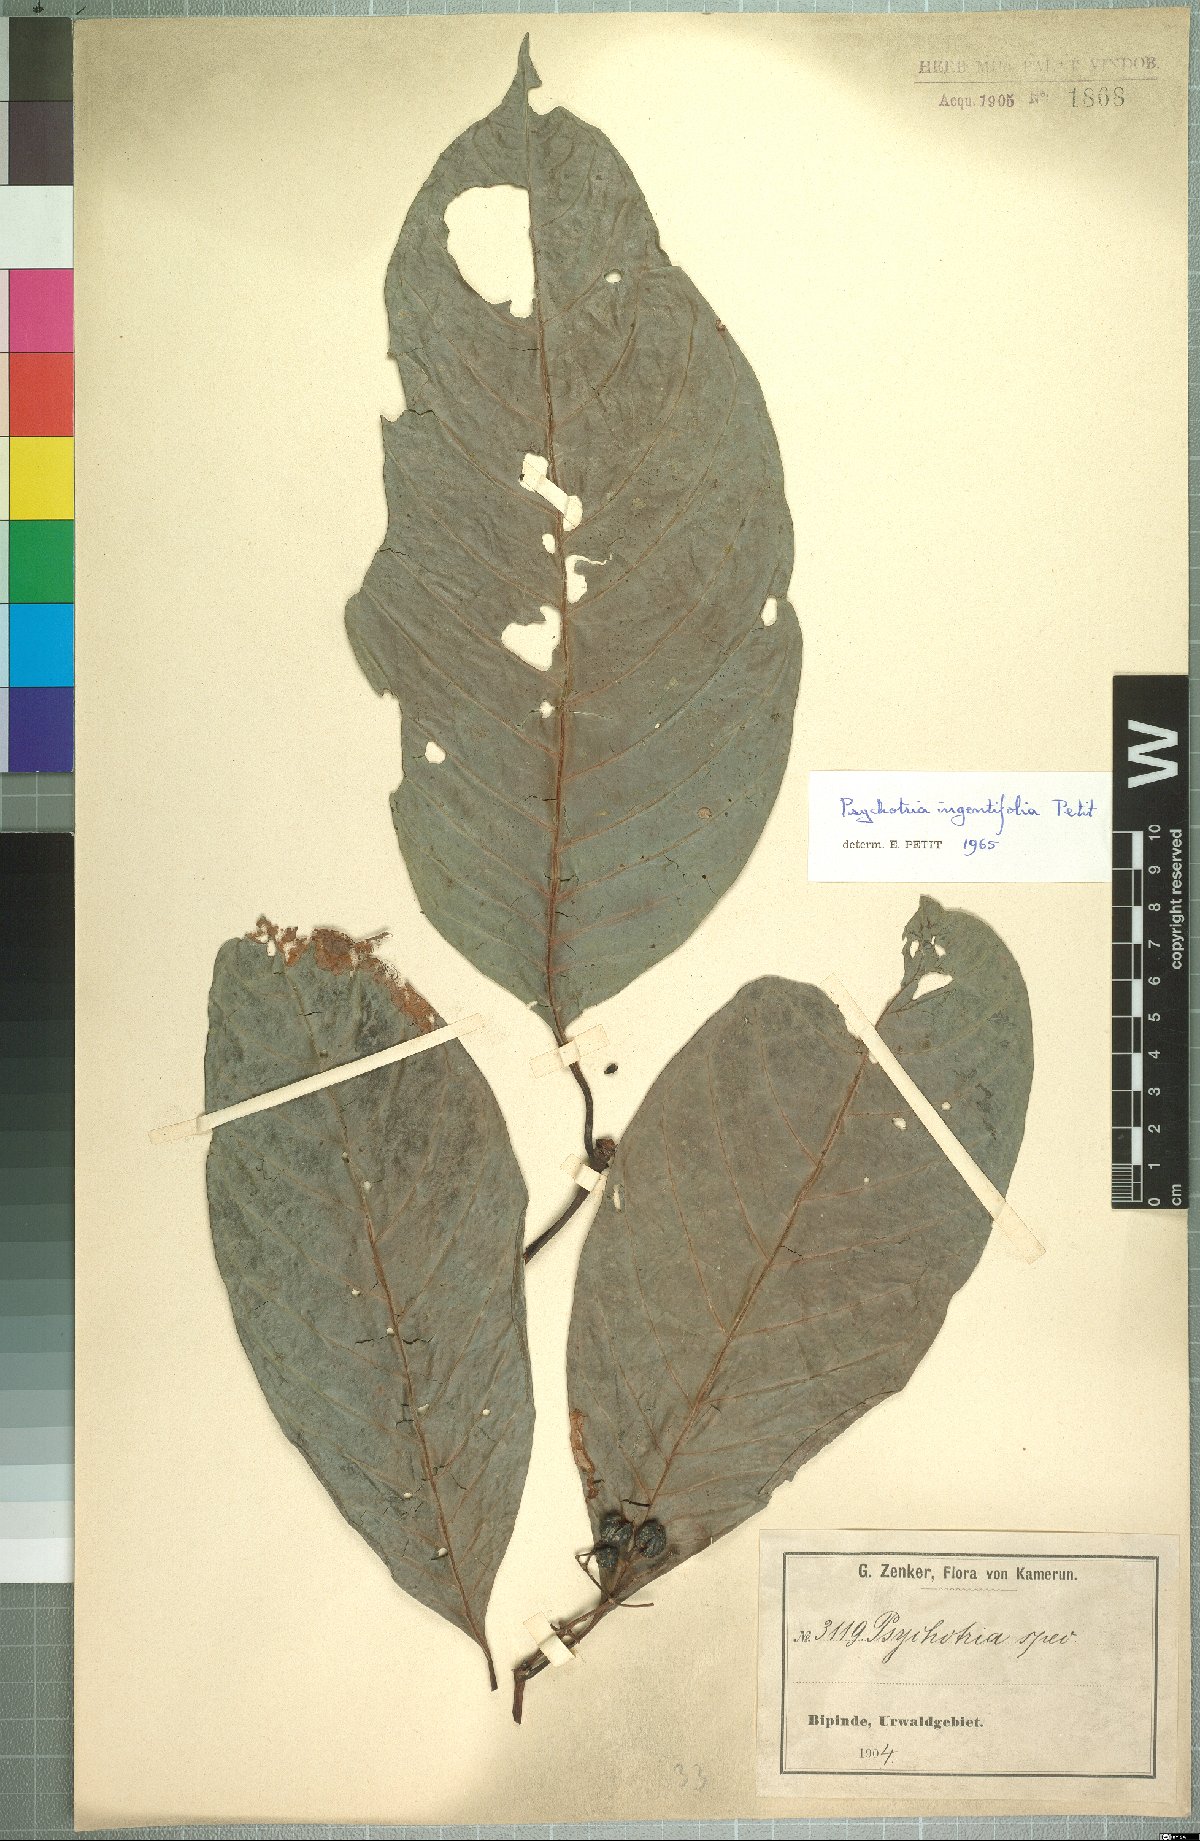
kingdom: Plantae
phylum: Tracheophyta
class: Magnoliopsida
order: Gentianales
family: Rubiaceae
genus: Psychotria
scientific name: Psychotria ingentifolia
